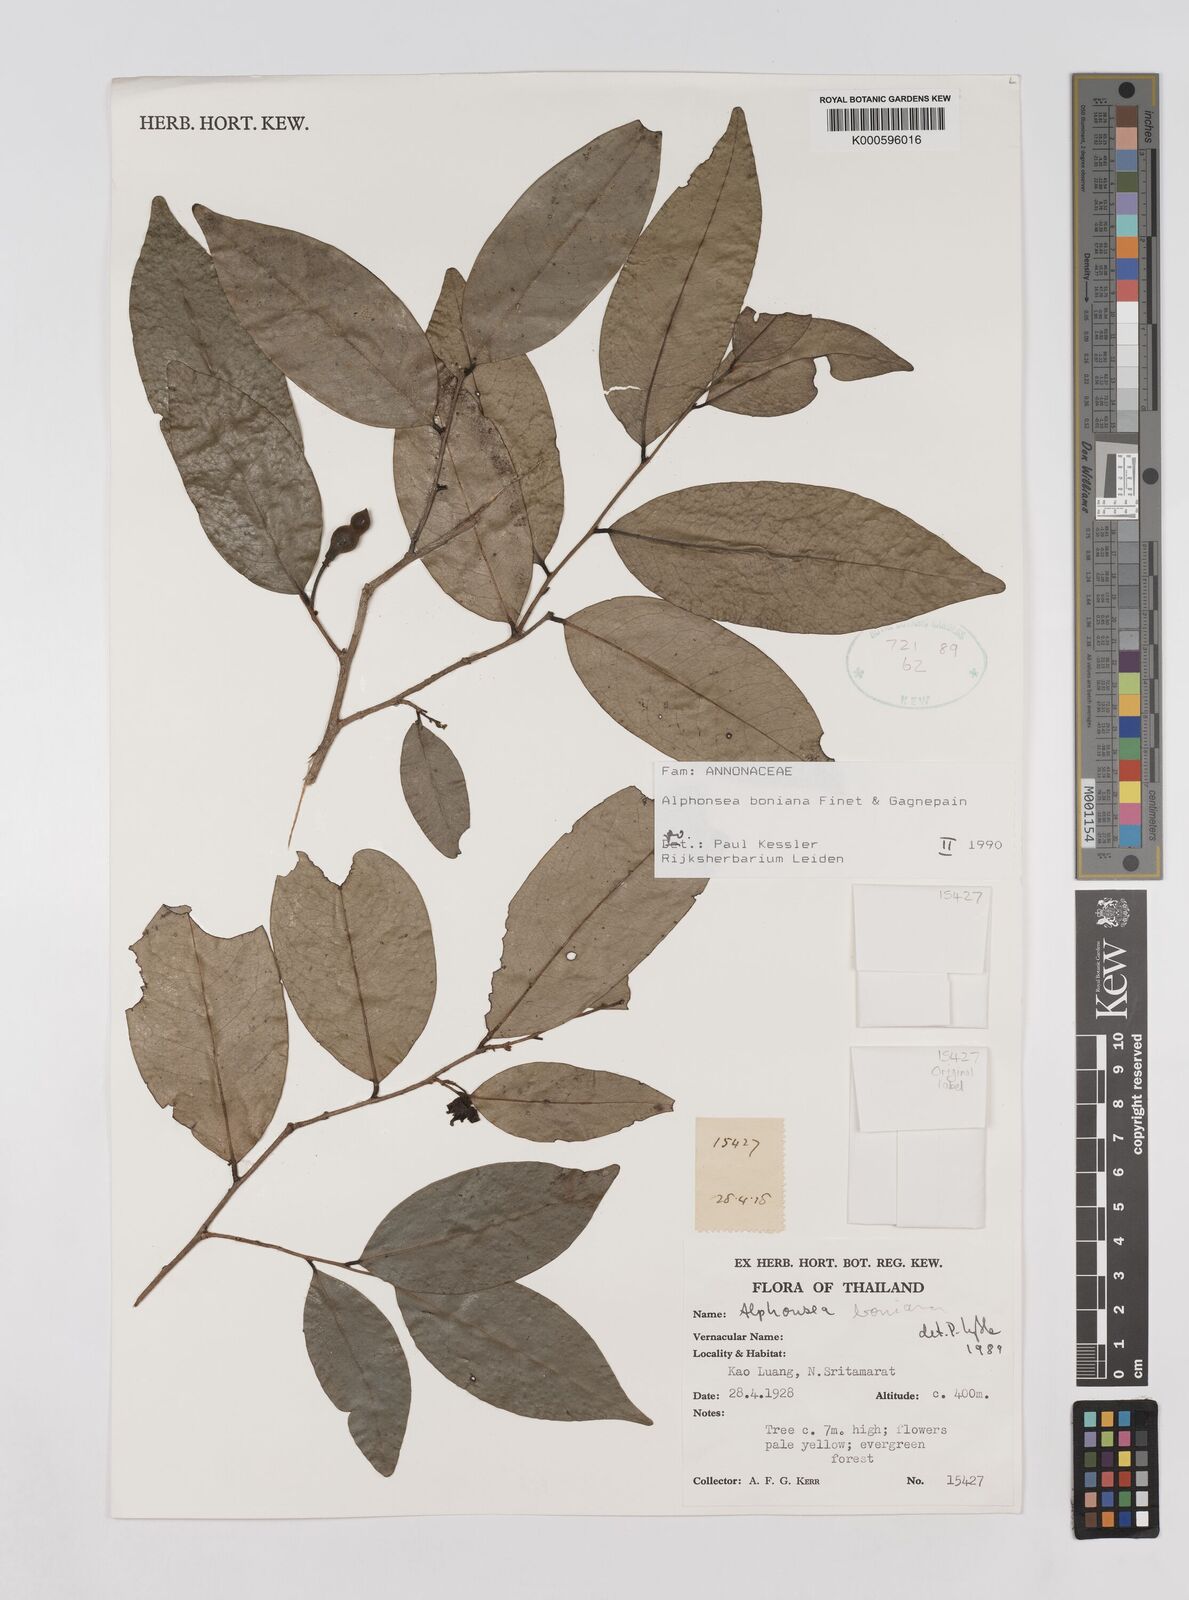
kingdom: Plantae
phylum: Tracheophyta
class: Magnoliopsida
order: Magnoliales
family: Annonaceae
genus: Alphonsea
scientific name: Alphonsea boniana
